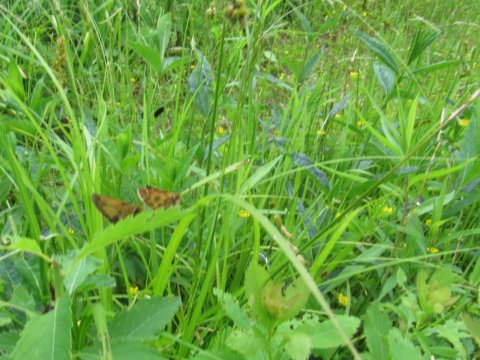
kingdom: Animalia
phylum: Arthropoda
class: Insecta
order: Lepidoptera
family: Hesperiidae
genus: Mastor
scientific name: Mastor hegon
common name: Pepper and Salt Skipper
